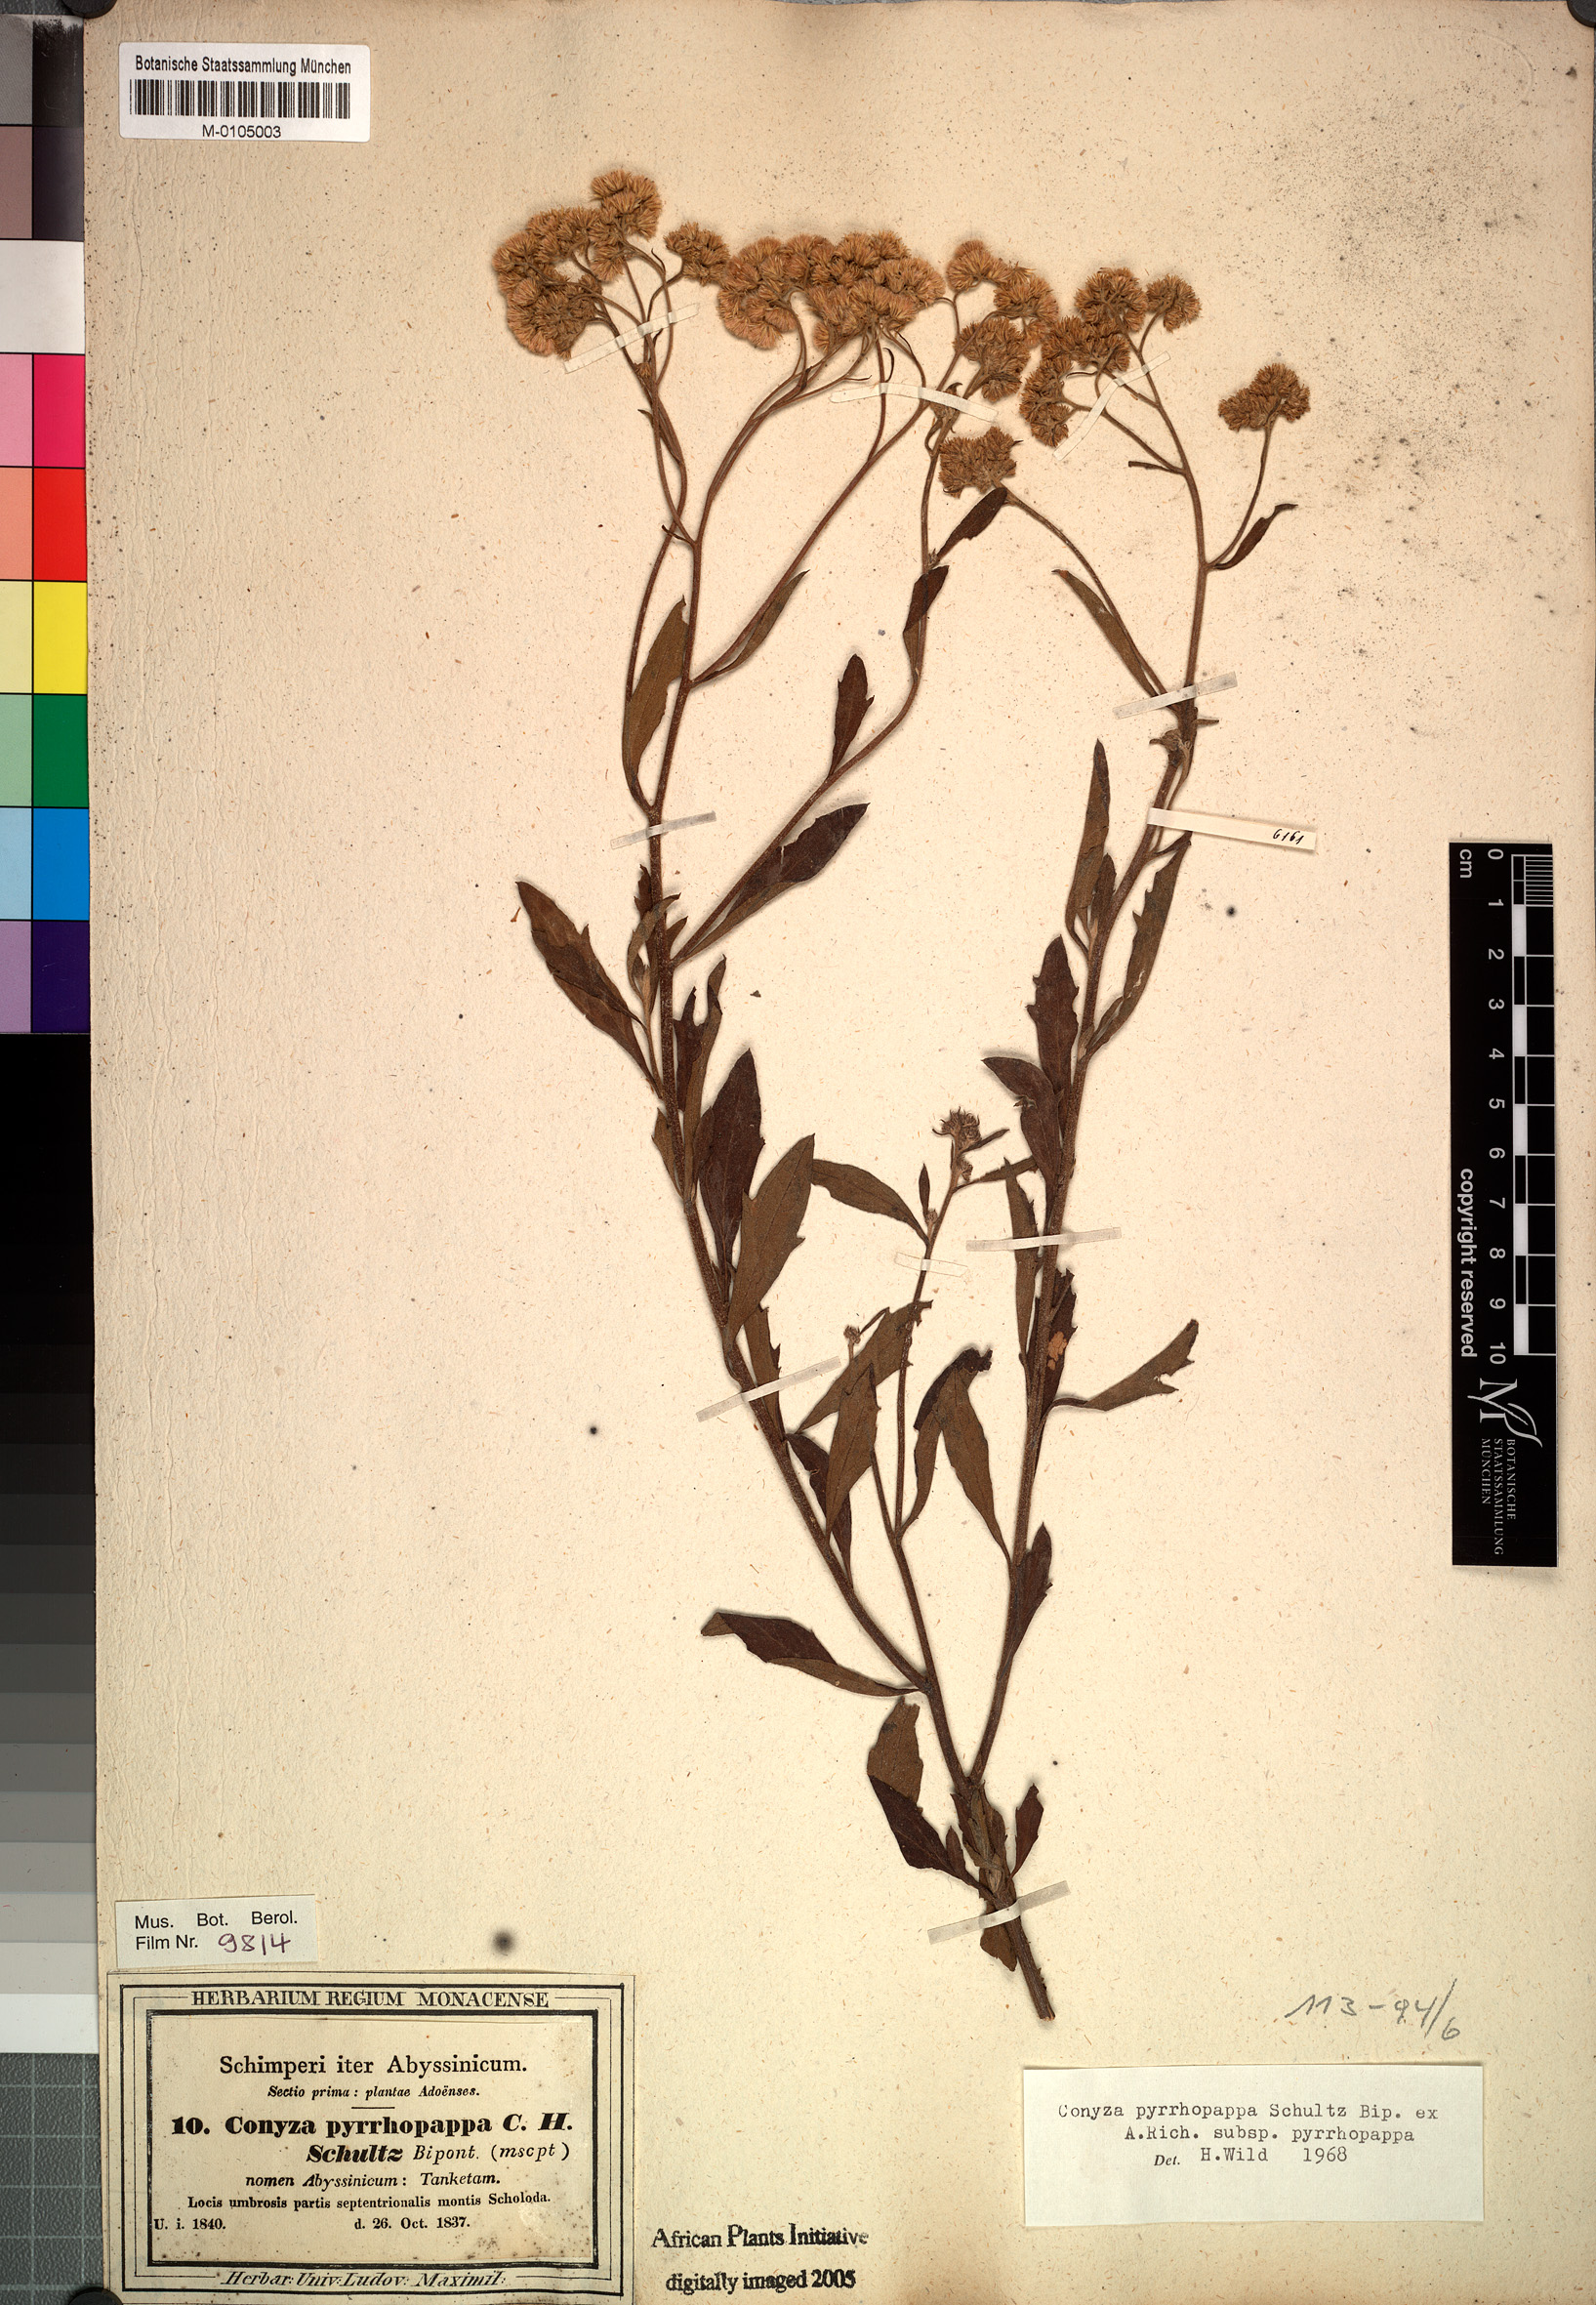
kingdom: Plantae
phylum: Tracheophyta
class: Magnoliopsida
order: Asterales
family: Asteraceae
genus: Microglossa
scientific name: Microglossa pyrrhopappa
